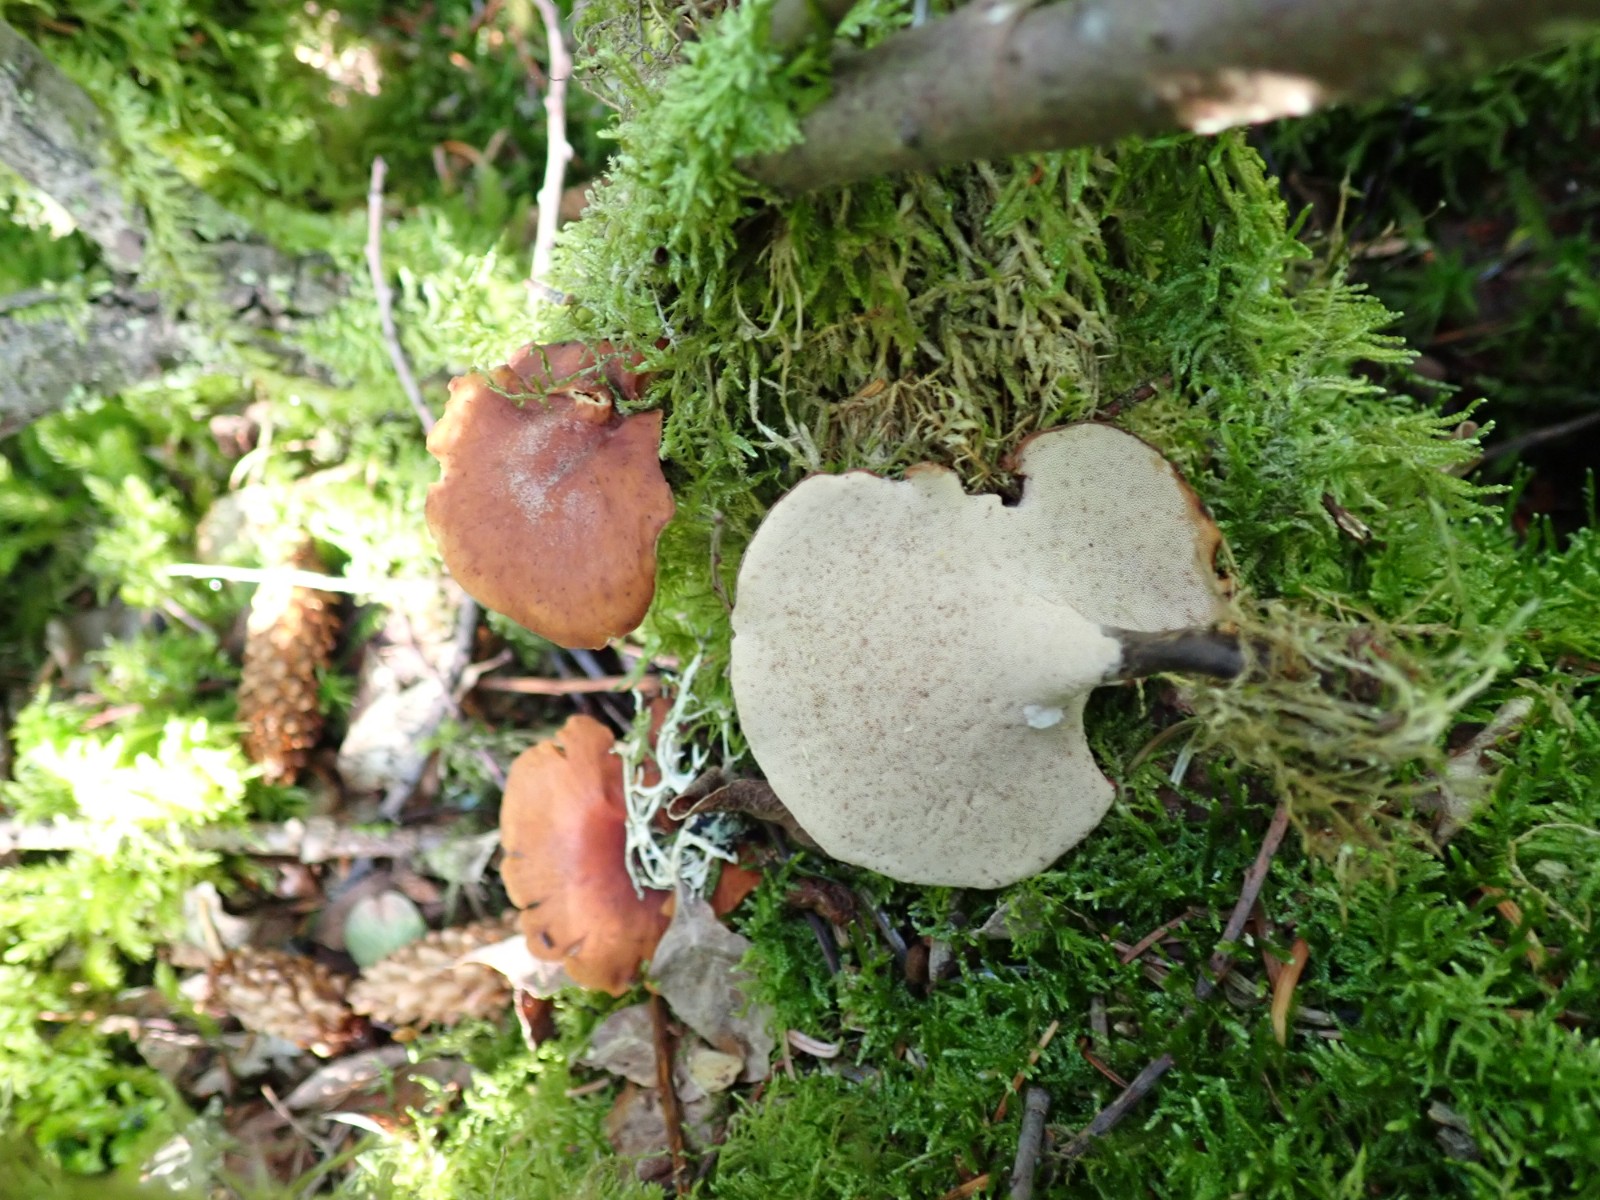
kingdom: Fungi
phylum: Basidiomycota
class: Agaricomycetes
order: Polyporales
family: Polyporaceae
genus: Picipes
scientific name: Picipes tubaeformis
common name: trompet-stilkporesvamp
